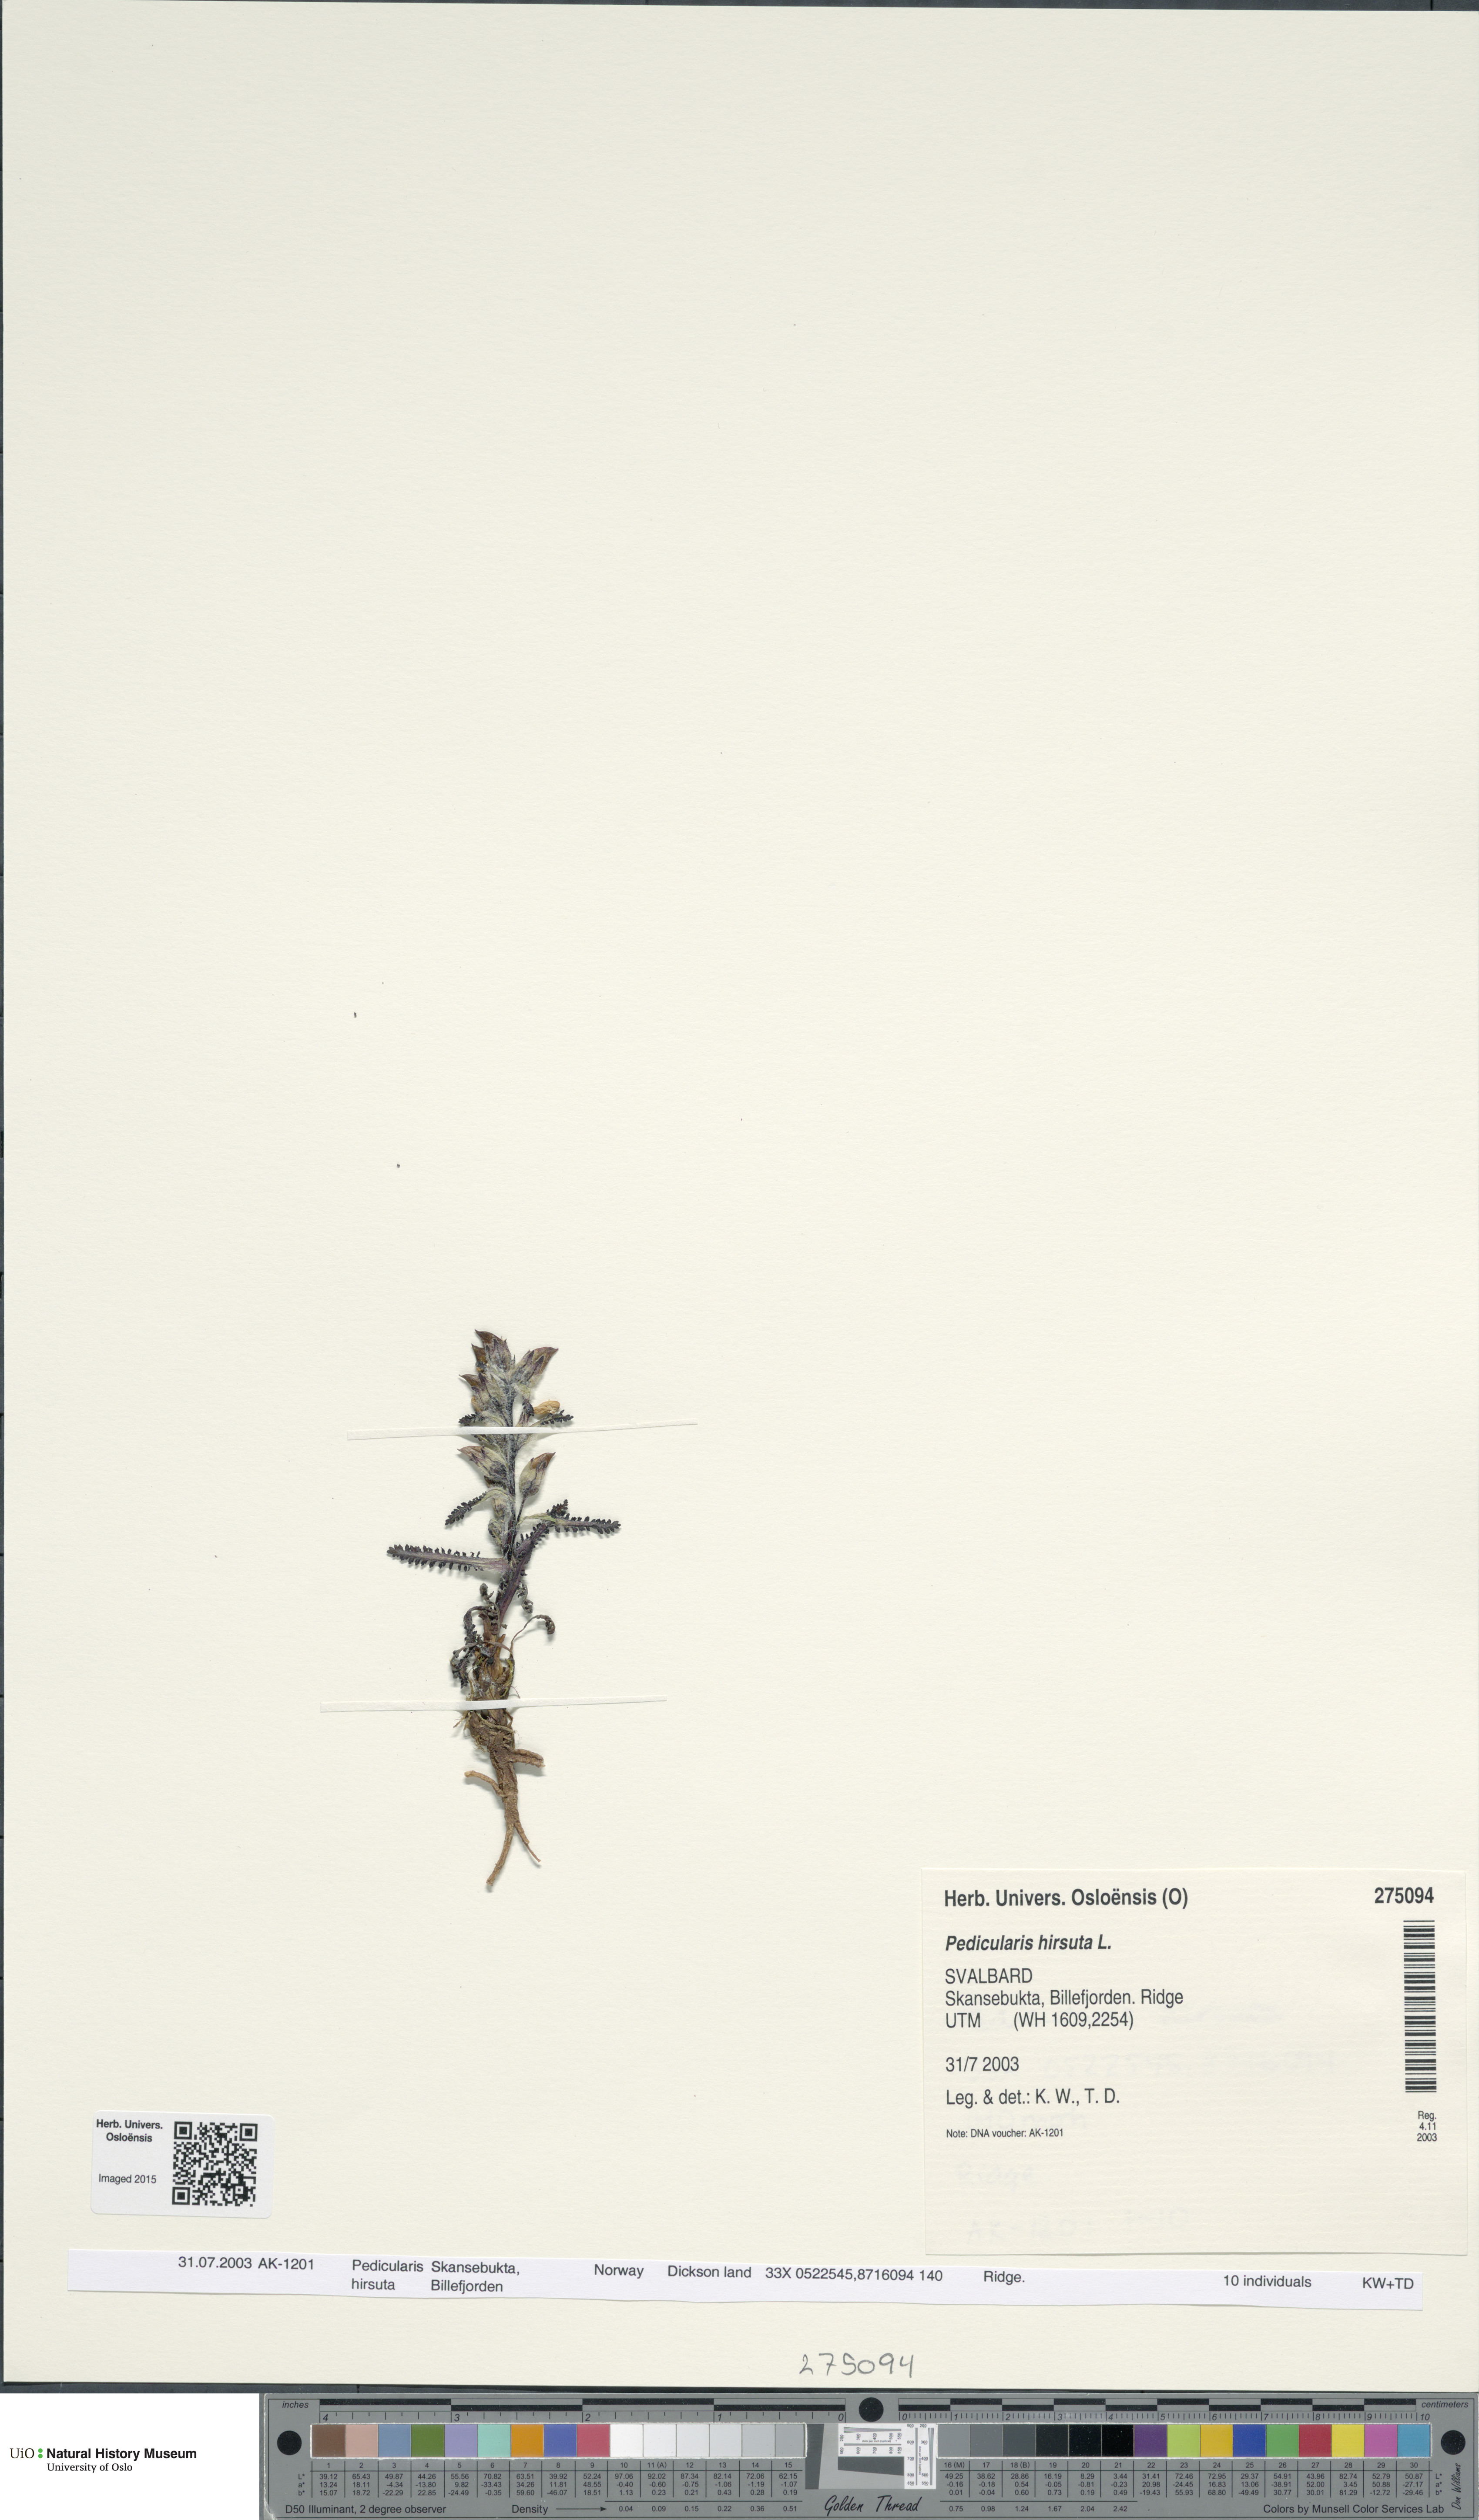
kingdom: Plantae
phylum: Tracheophyta
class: Magnoliopsida
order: Lamiales
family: Orobanchaceae
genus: Pedicularis
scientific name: Pedicularis hirsuta
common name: Hairy lousewort
